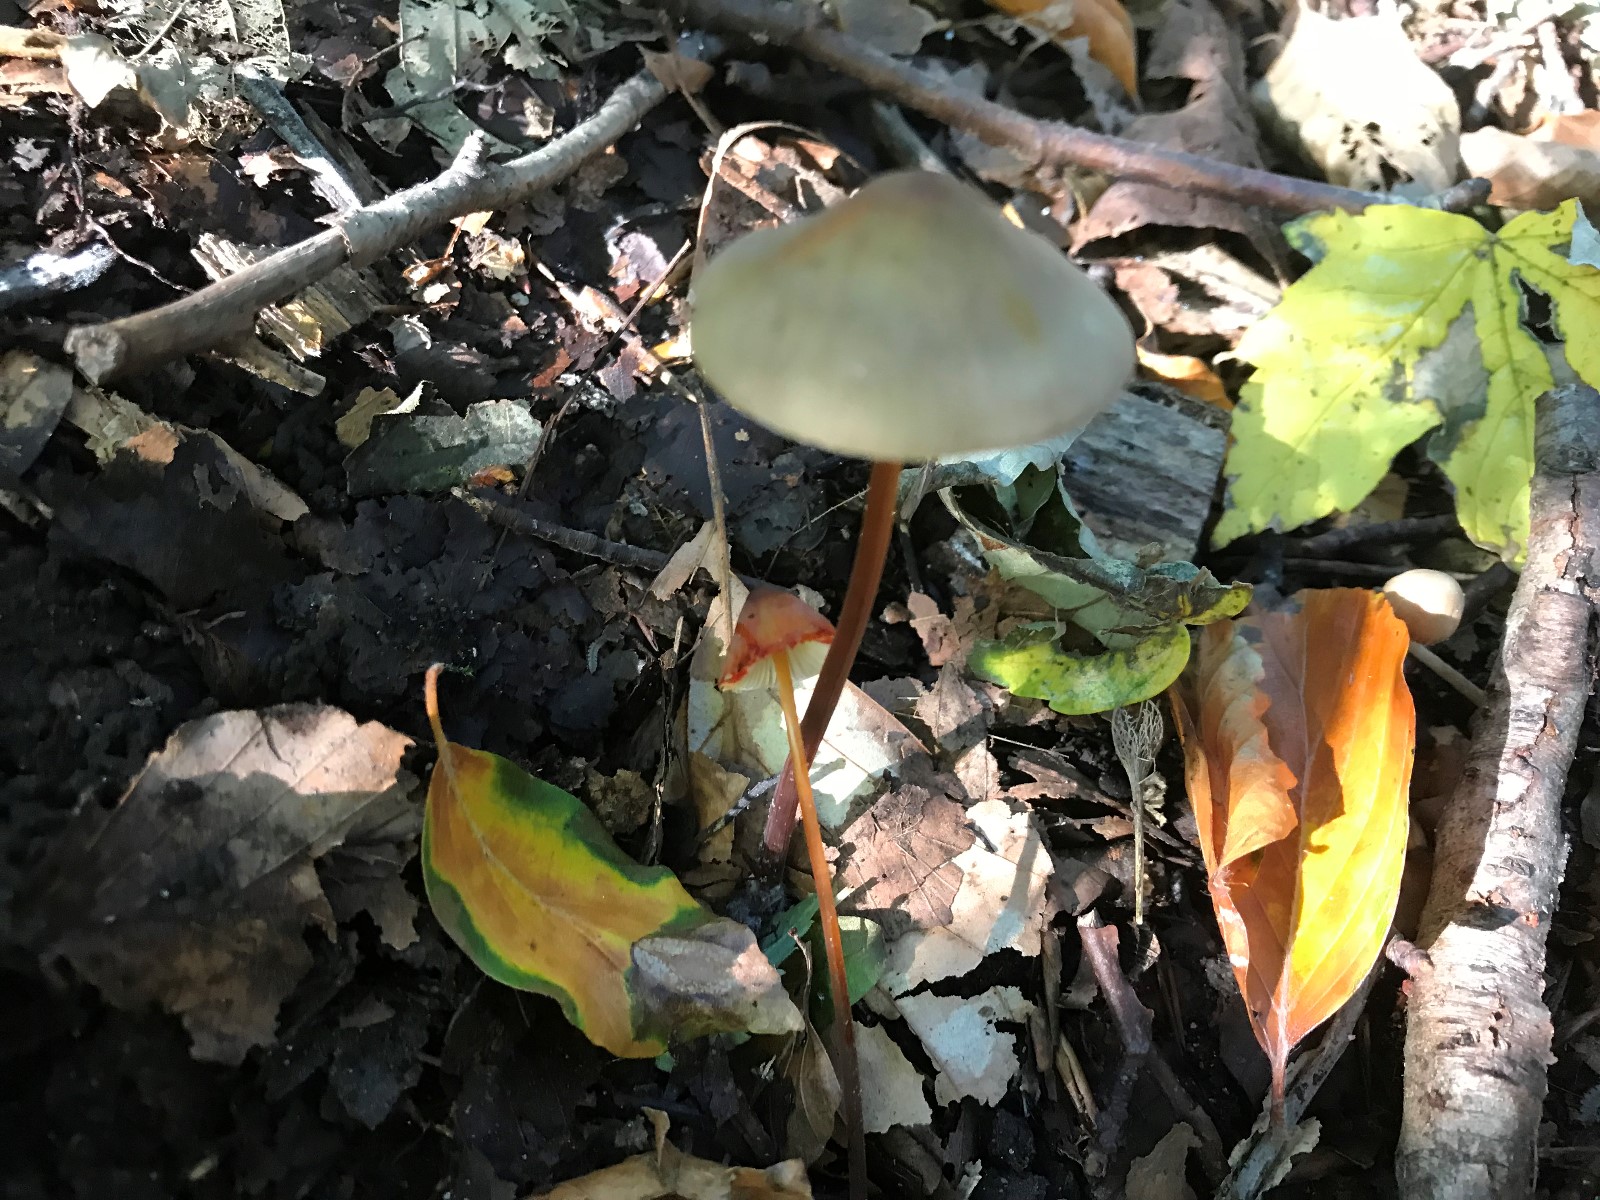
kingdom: Fungi
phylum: Basidiomycota
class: Agaricomycetes
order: Agaricales
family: Mycenaceae
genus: Mycena
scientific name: Mycena crocata
